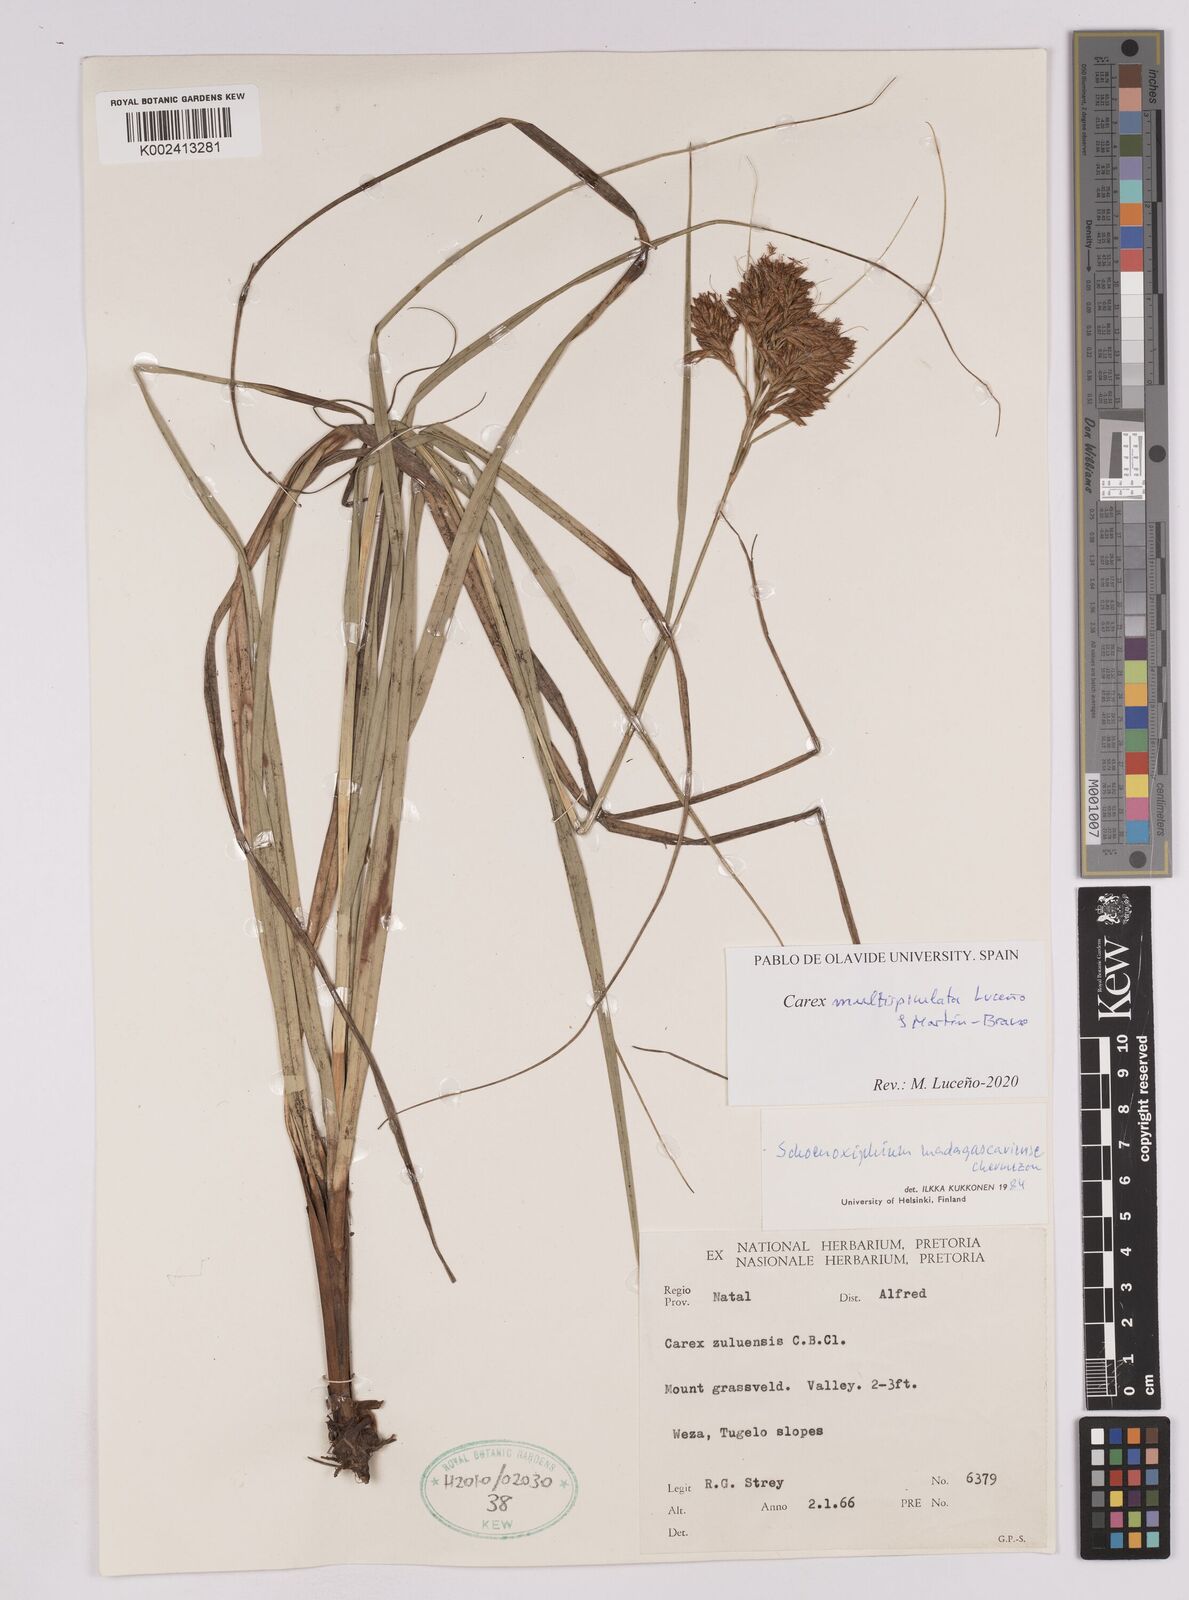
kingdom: Plantae
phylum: Tracheophyta
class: Liliopsida
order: Poales
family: Cyperaceae
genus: Carex
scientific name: Carex multispiculata
